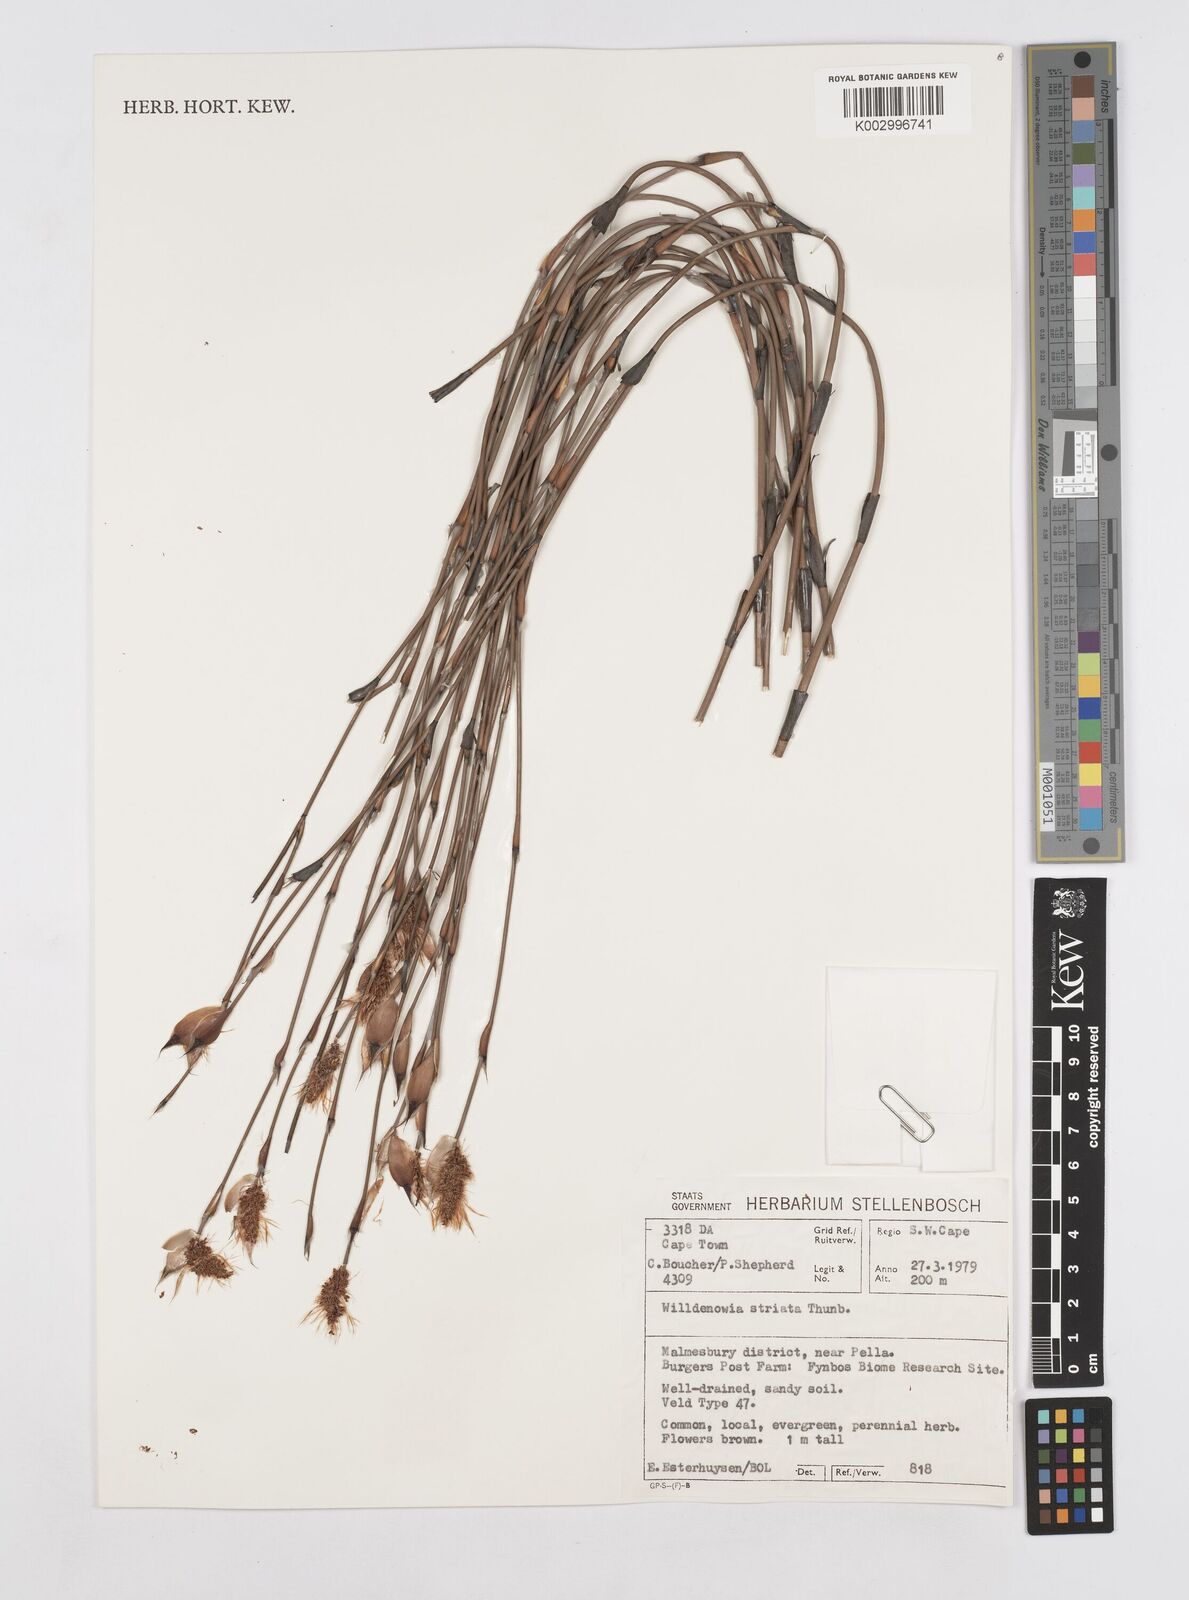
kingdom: Plantae
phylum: Tracheophyta
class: Liliopsida
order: Poales
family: Restionaceae
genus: Willdenowia
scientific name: Willdenowia incurvata
